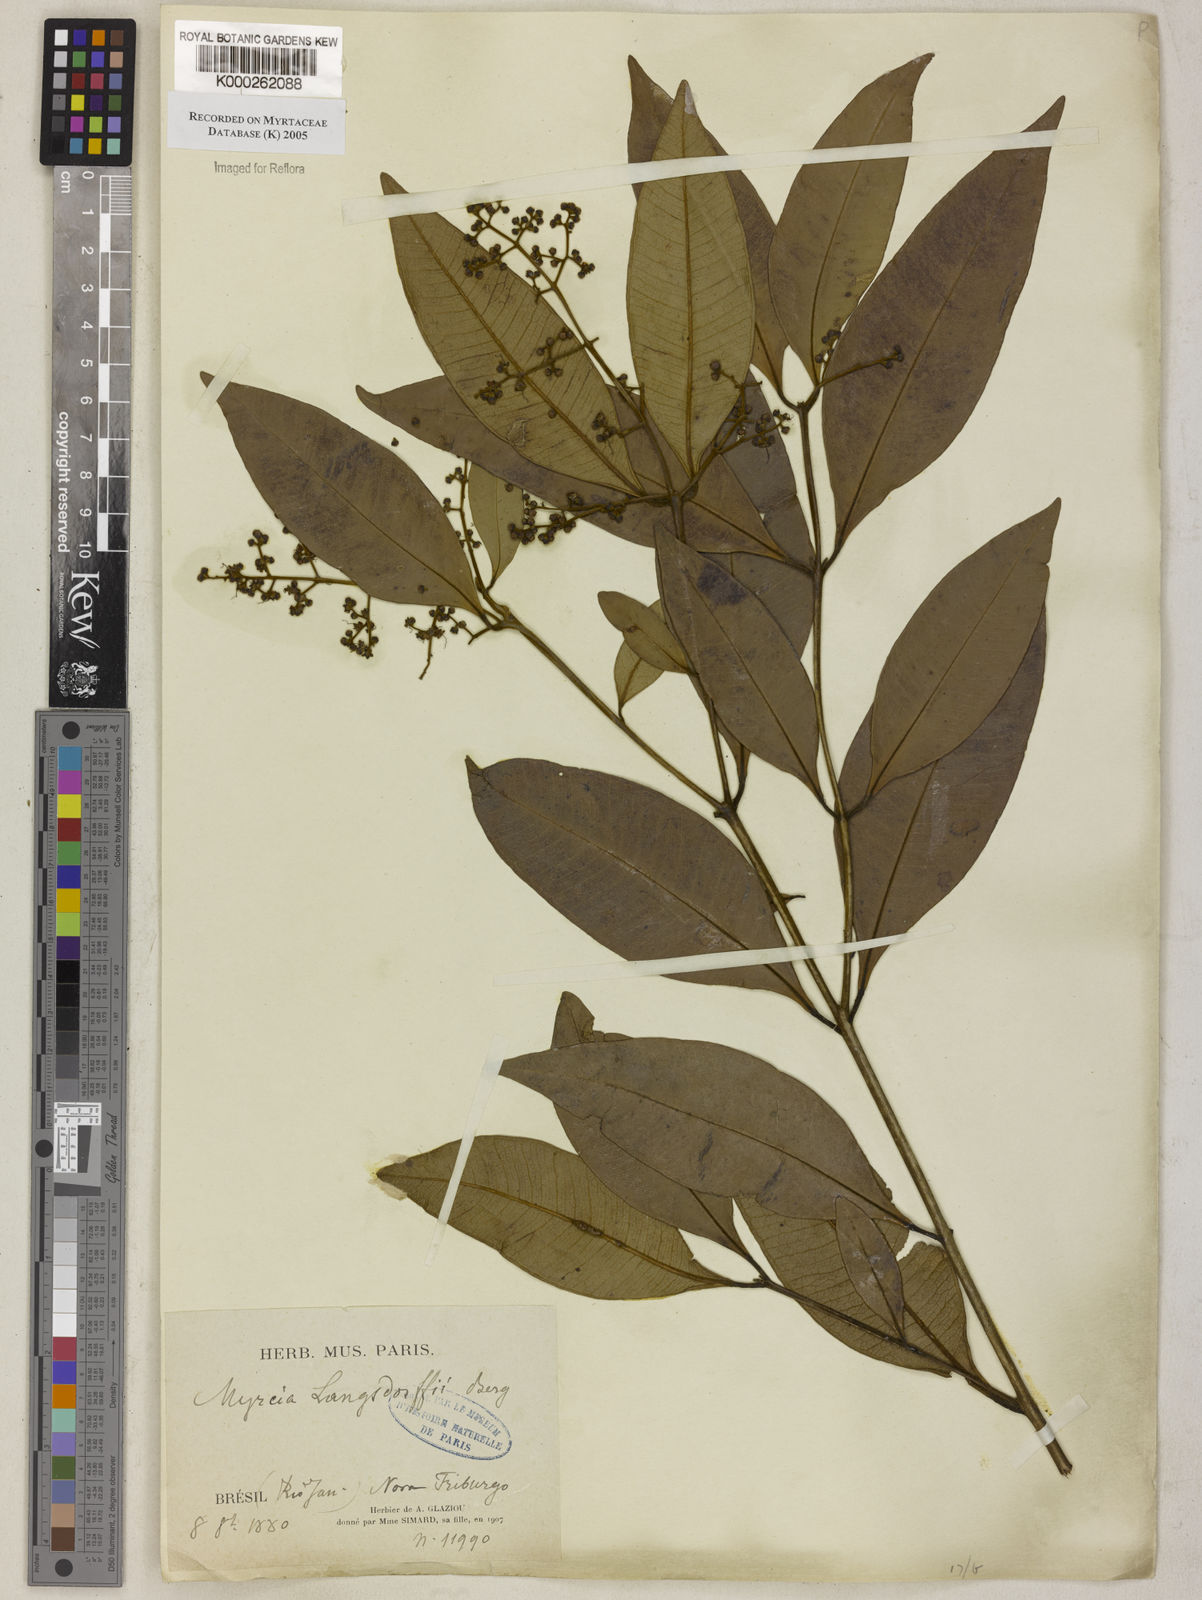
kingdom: Plantae
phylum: Tracheophyta
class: Magnoliopsida
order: Myrtales
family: Myrtaceae
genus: Myrcia
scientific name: Myrcia splendens
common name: Surinam cherry
